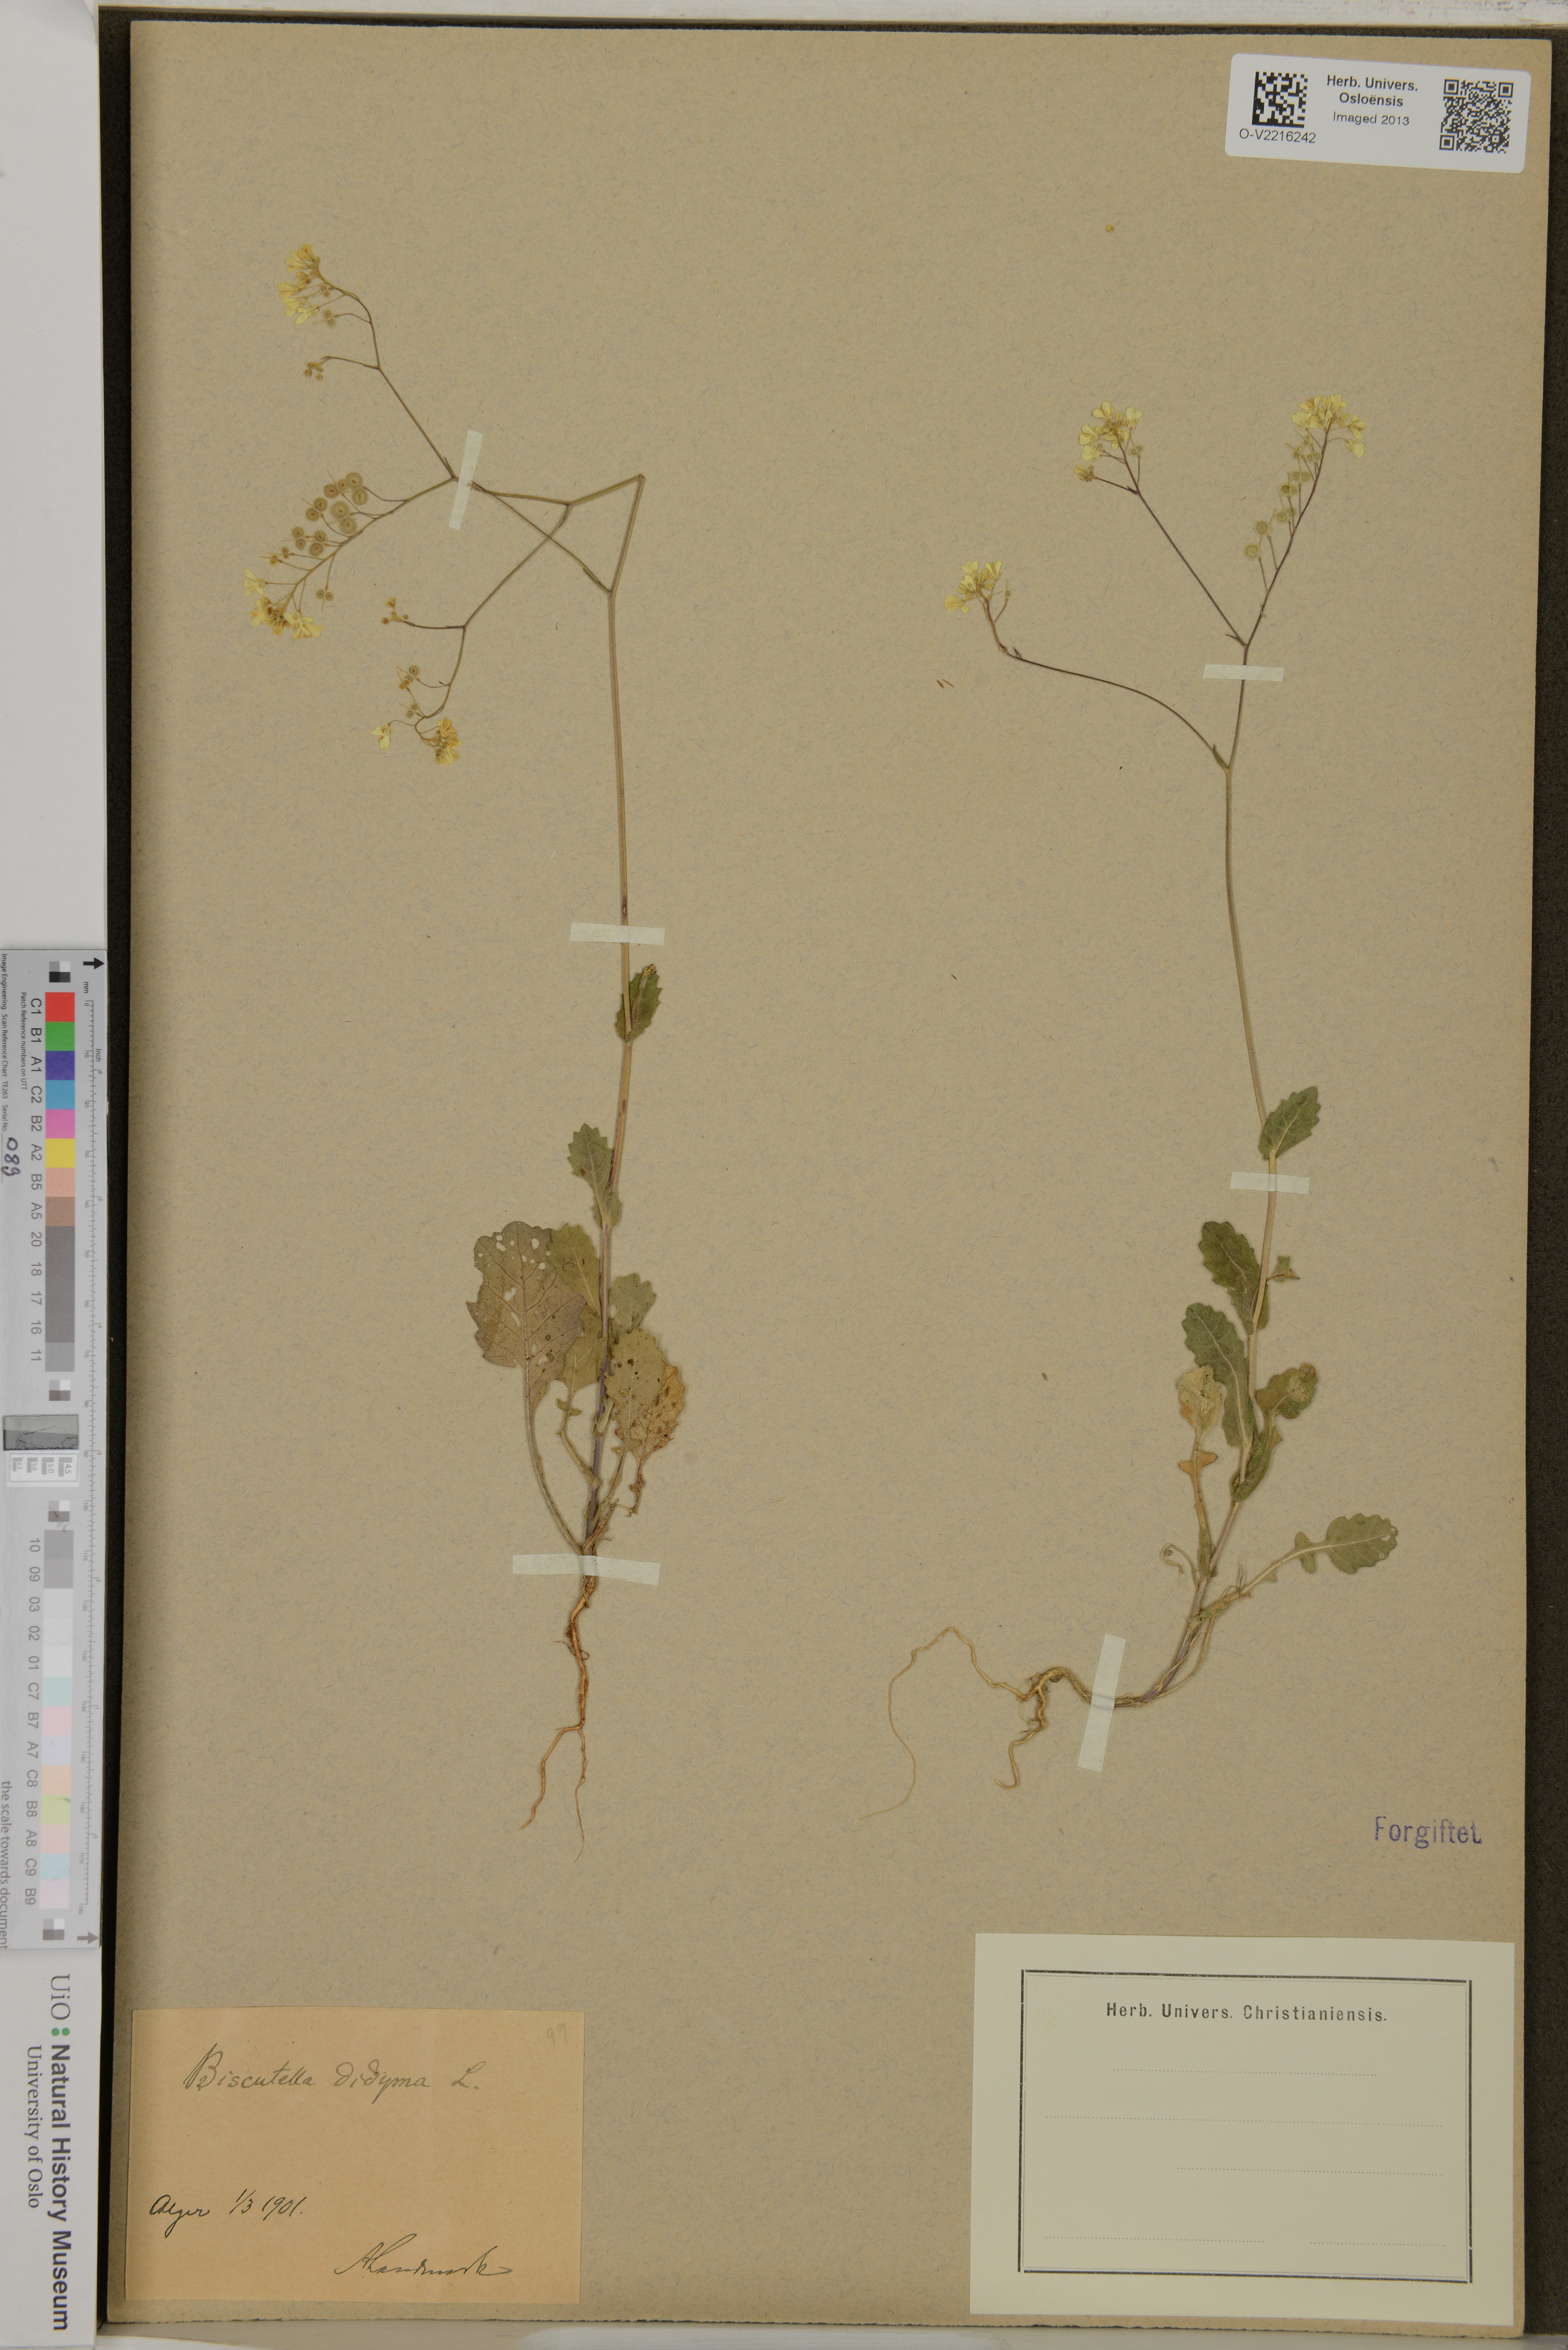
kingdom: Plantae
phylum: Tracheophyta
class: Magnoliopsida
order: Brassicales
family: Brassicaceae
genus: Biscutella
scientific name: Biscutella didyma
